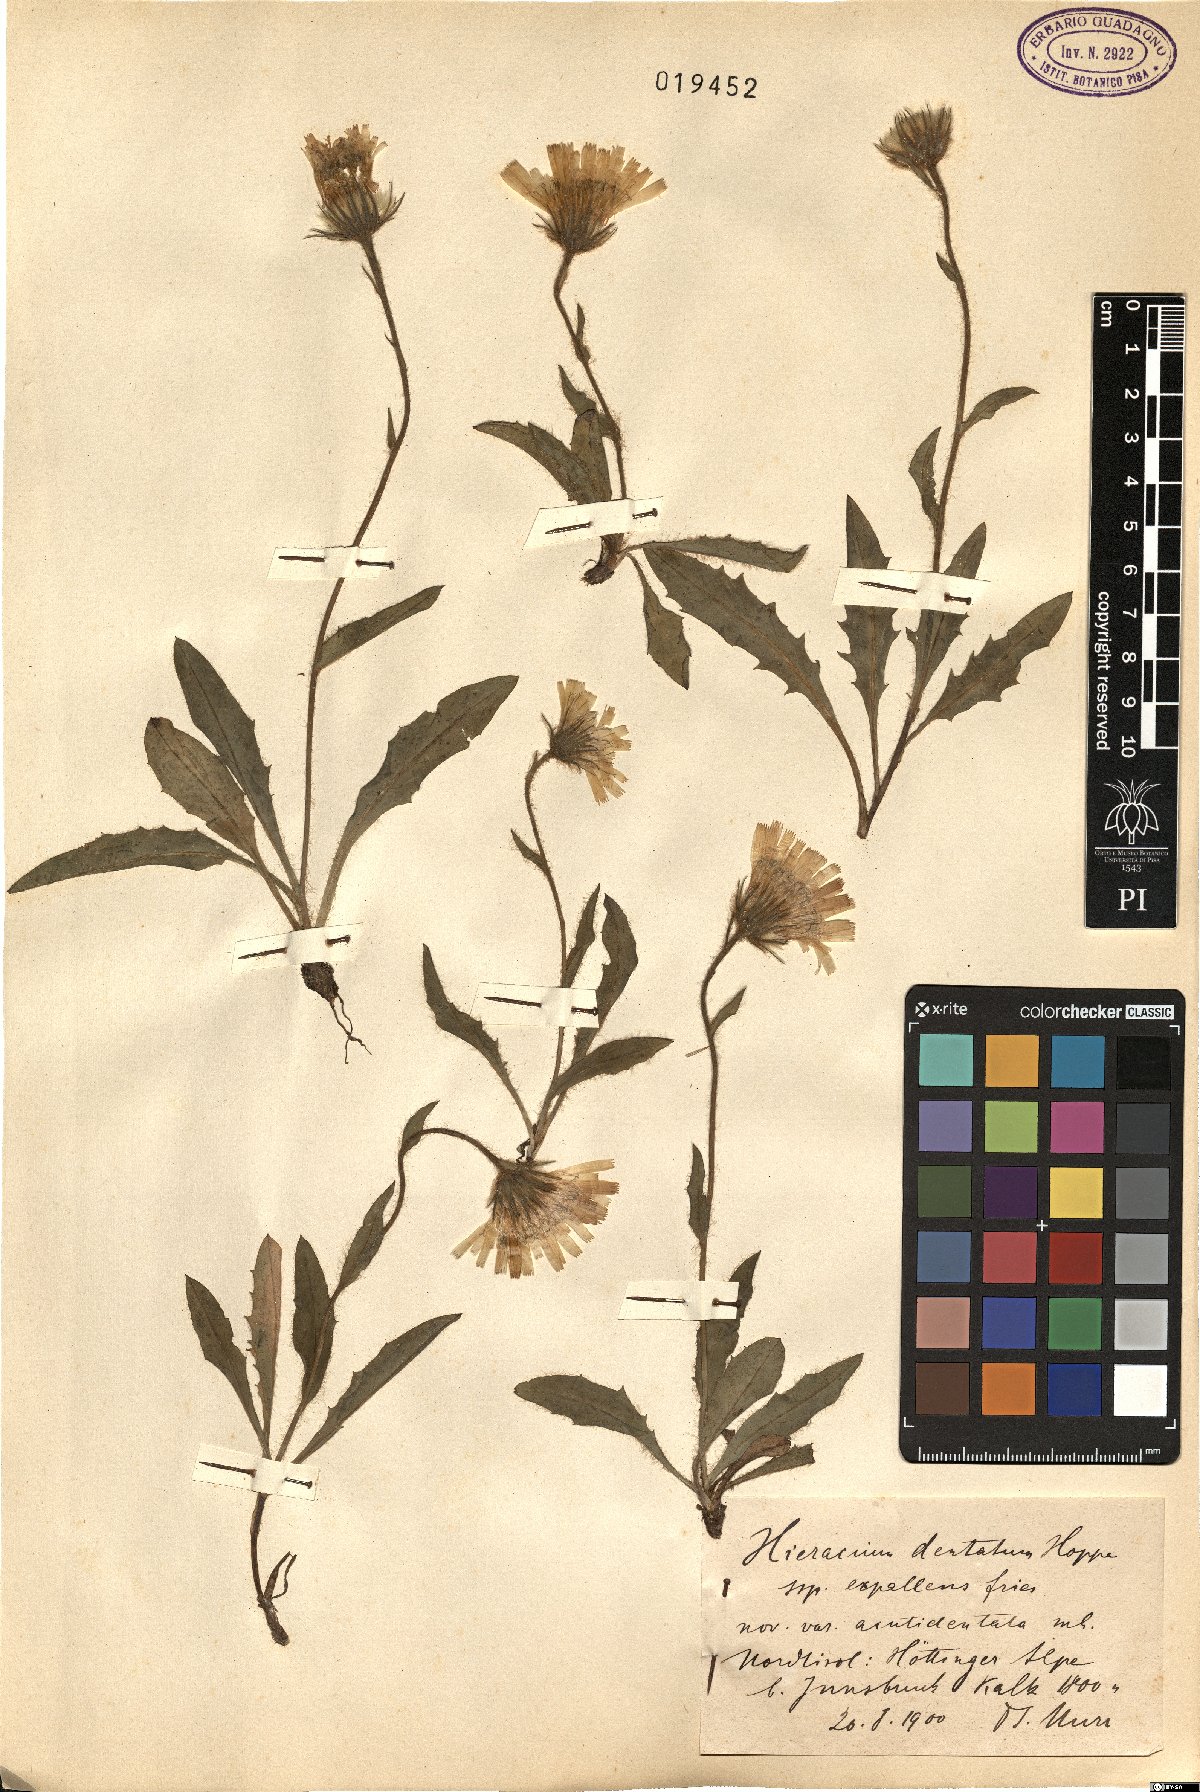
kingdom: Plantae
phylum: Tracheophyta
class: Magnoliopsida
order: Asterales
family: Asteraceae
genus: Hieracium
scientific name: Hieracium dentatum
